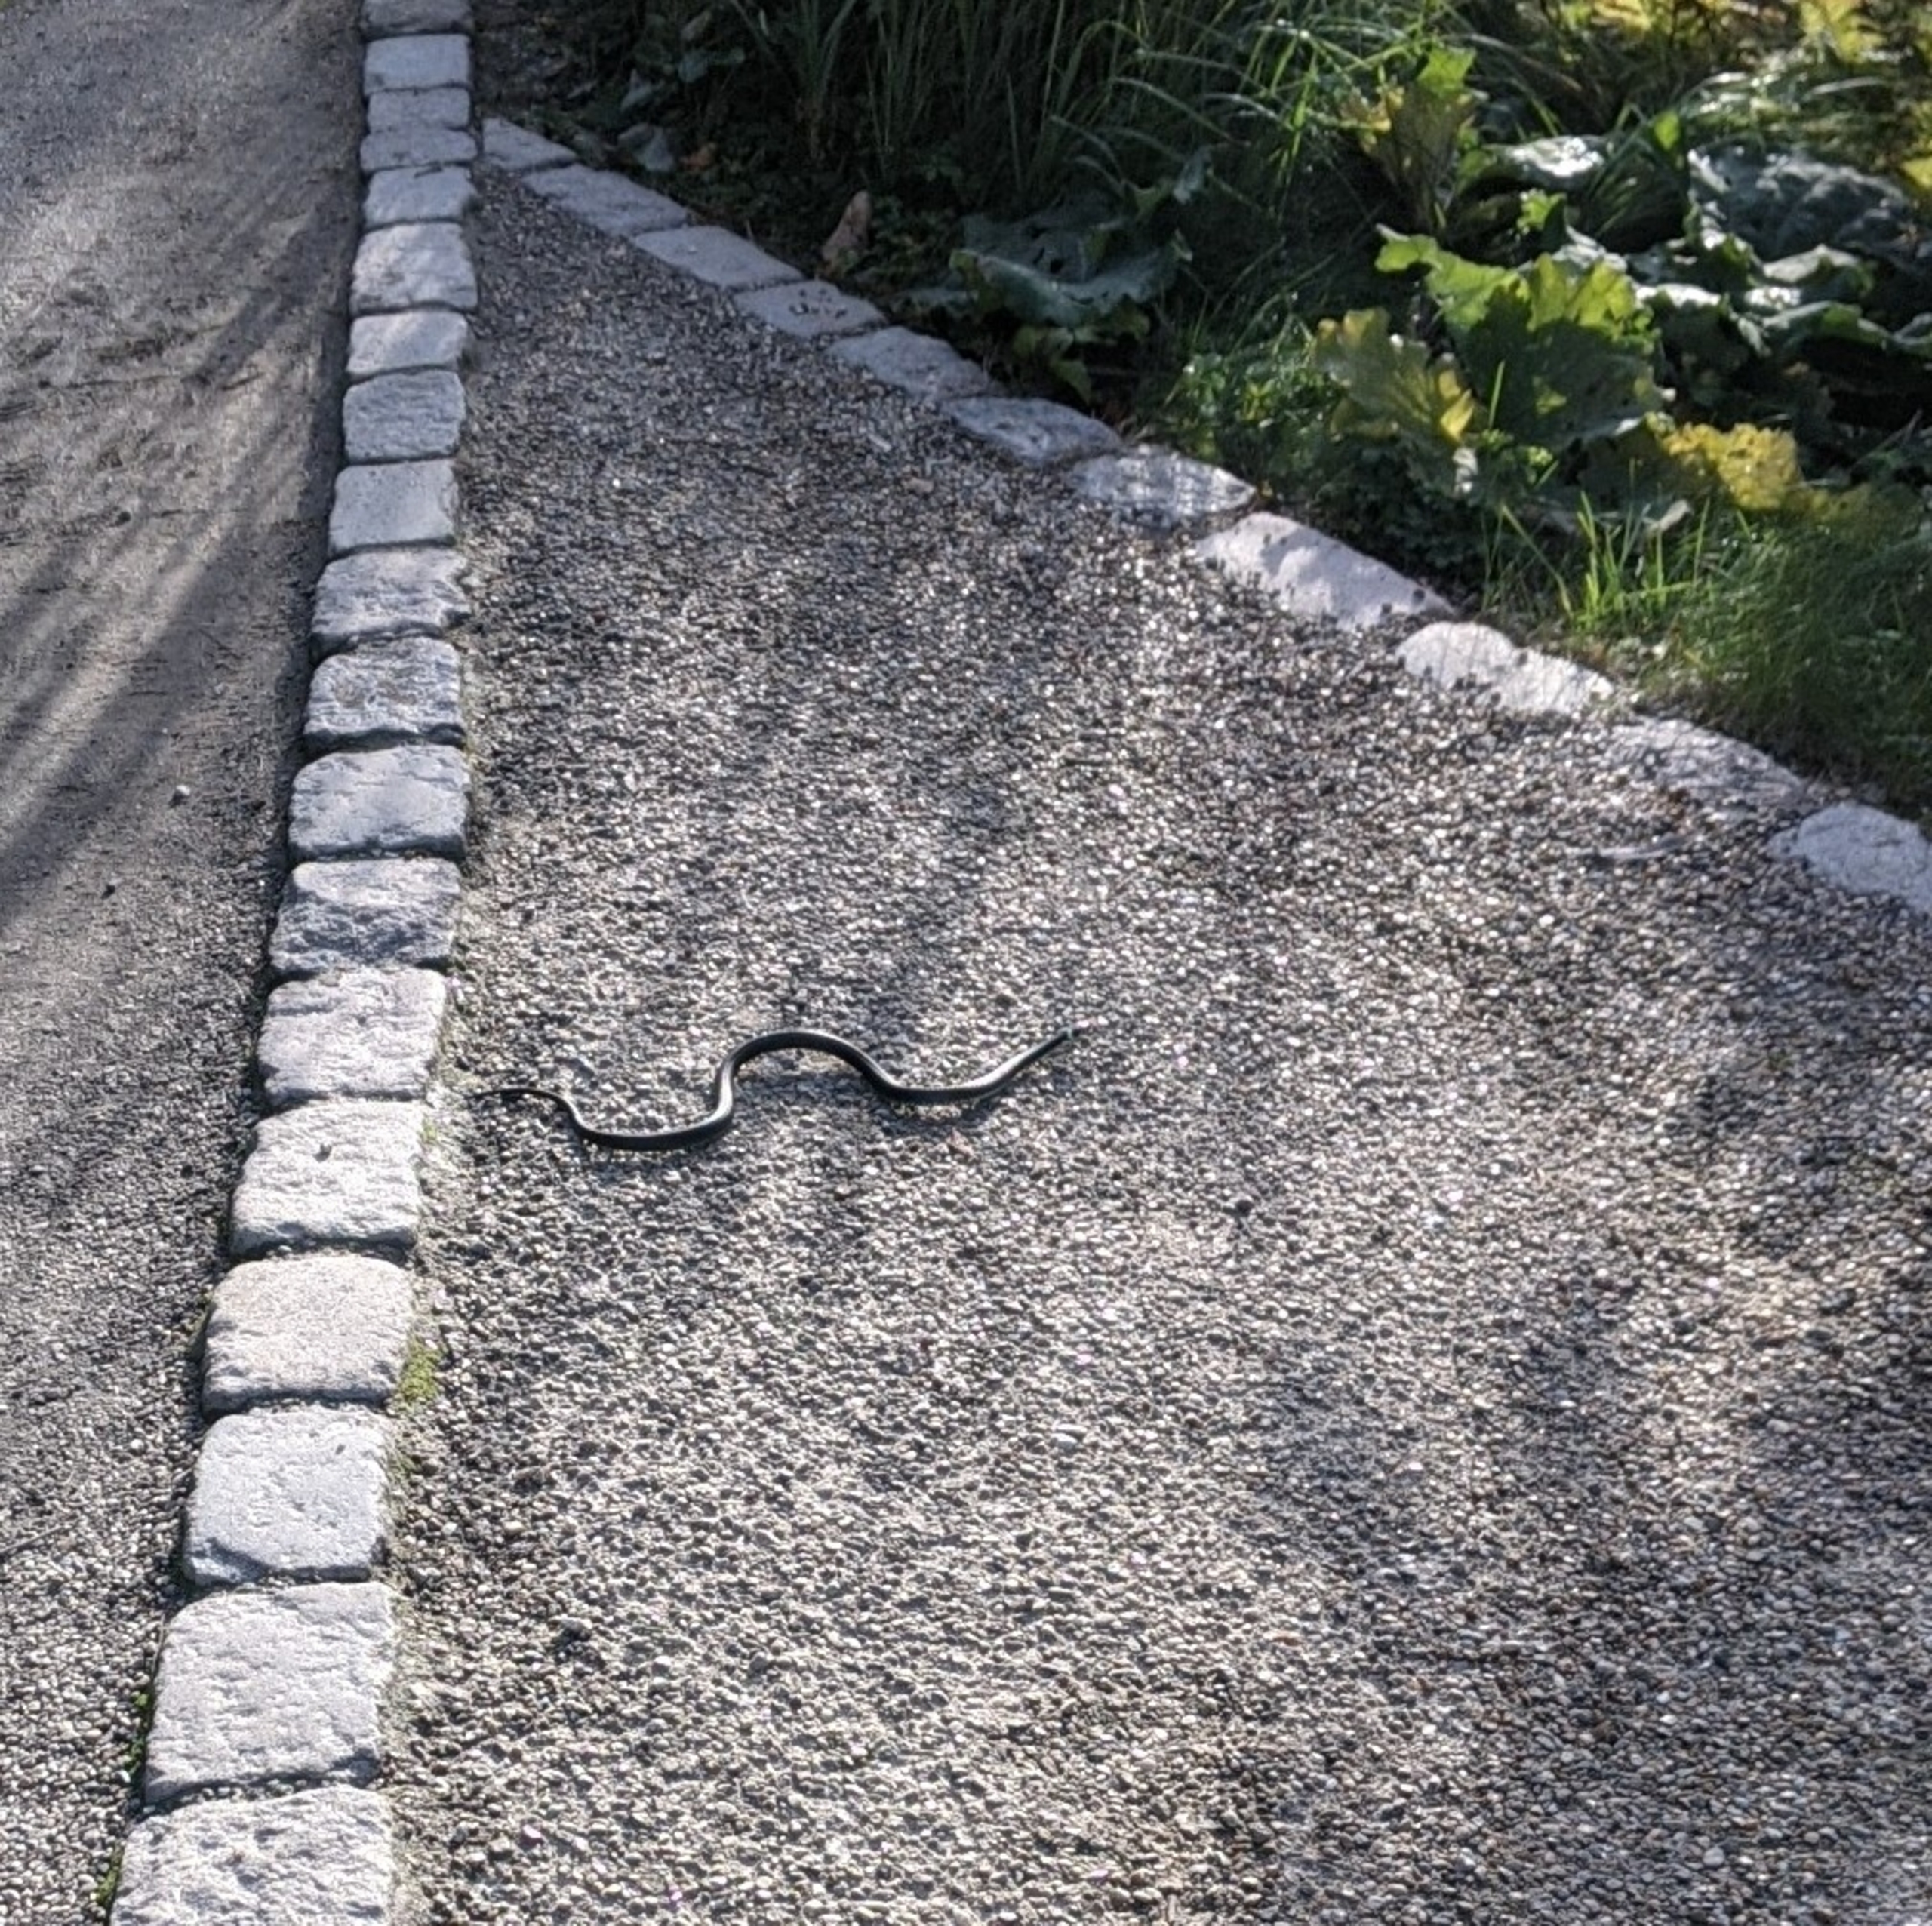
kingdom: Animalia
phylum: Chordata
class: Squamata
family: Colubridae
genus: Natrix
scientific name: Natrix natrix
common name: Snog
